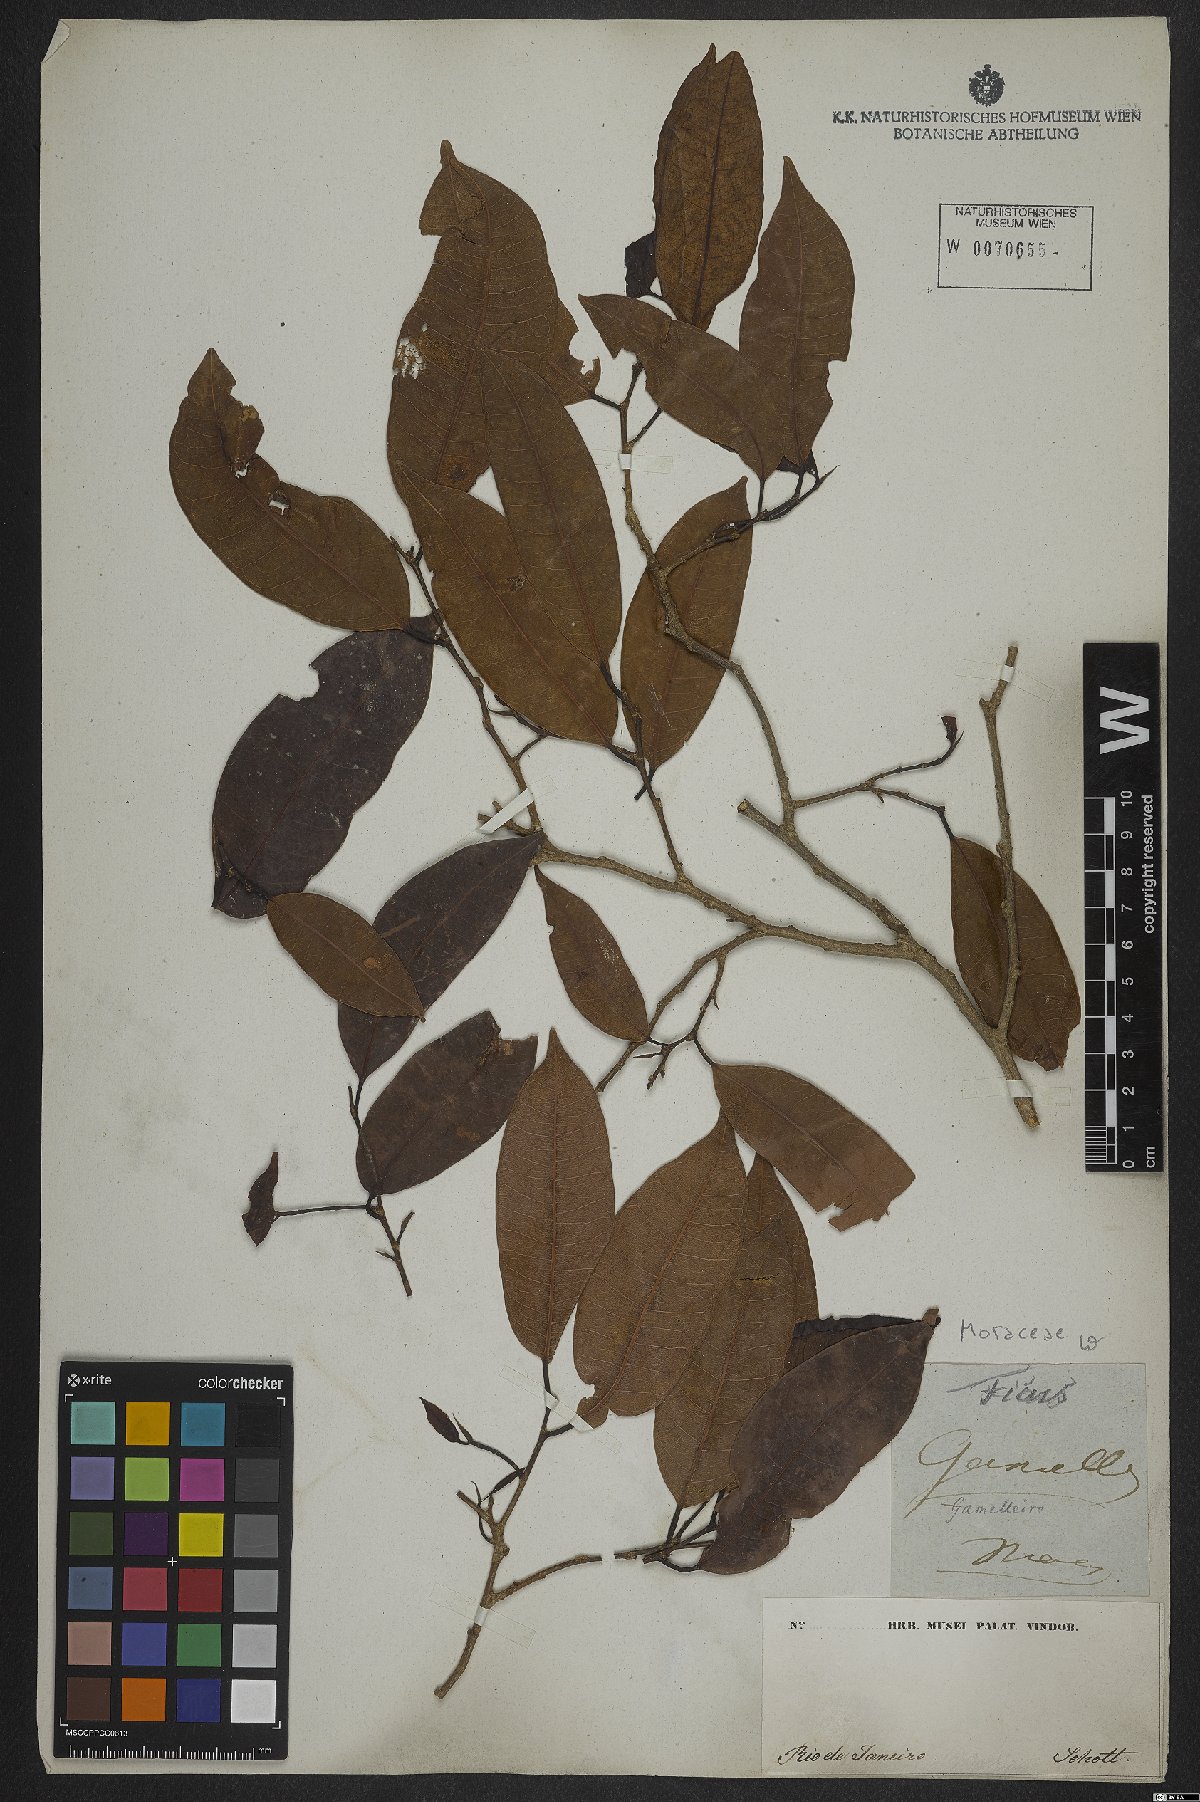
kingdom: Plantae
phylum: Tracheophyta
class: Magnoliopsida
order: Rosales
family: Moraceae
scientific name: Moraceae
